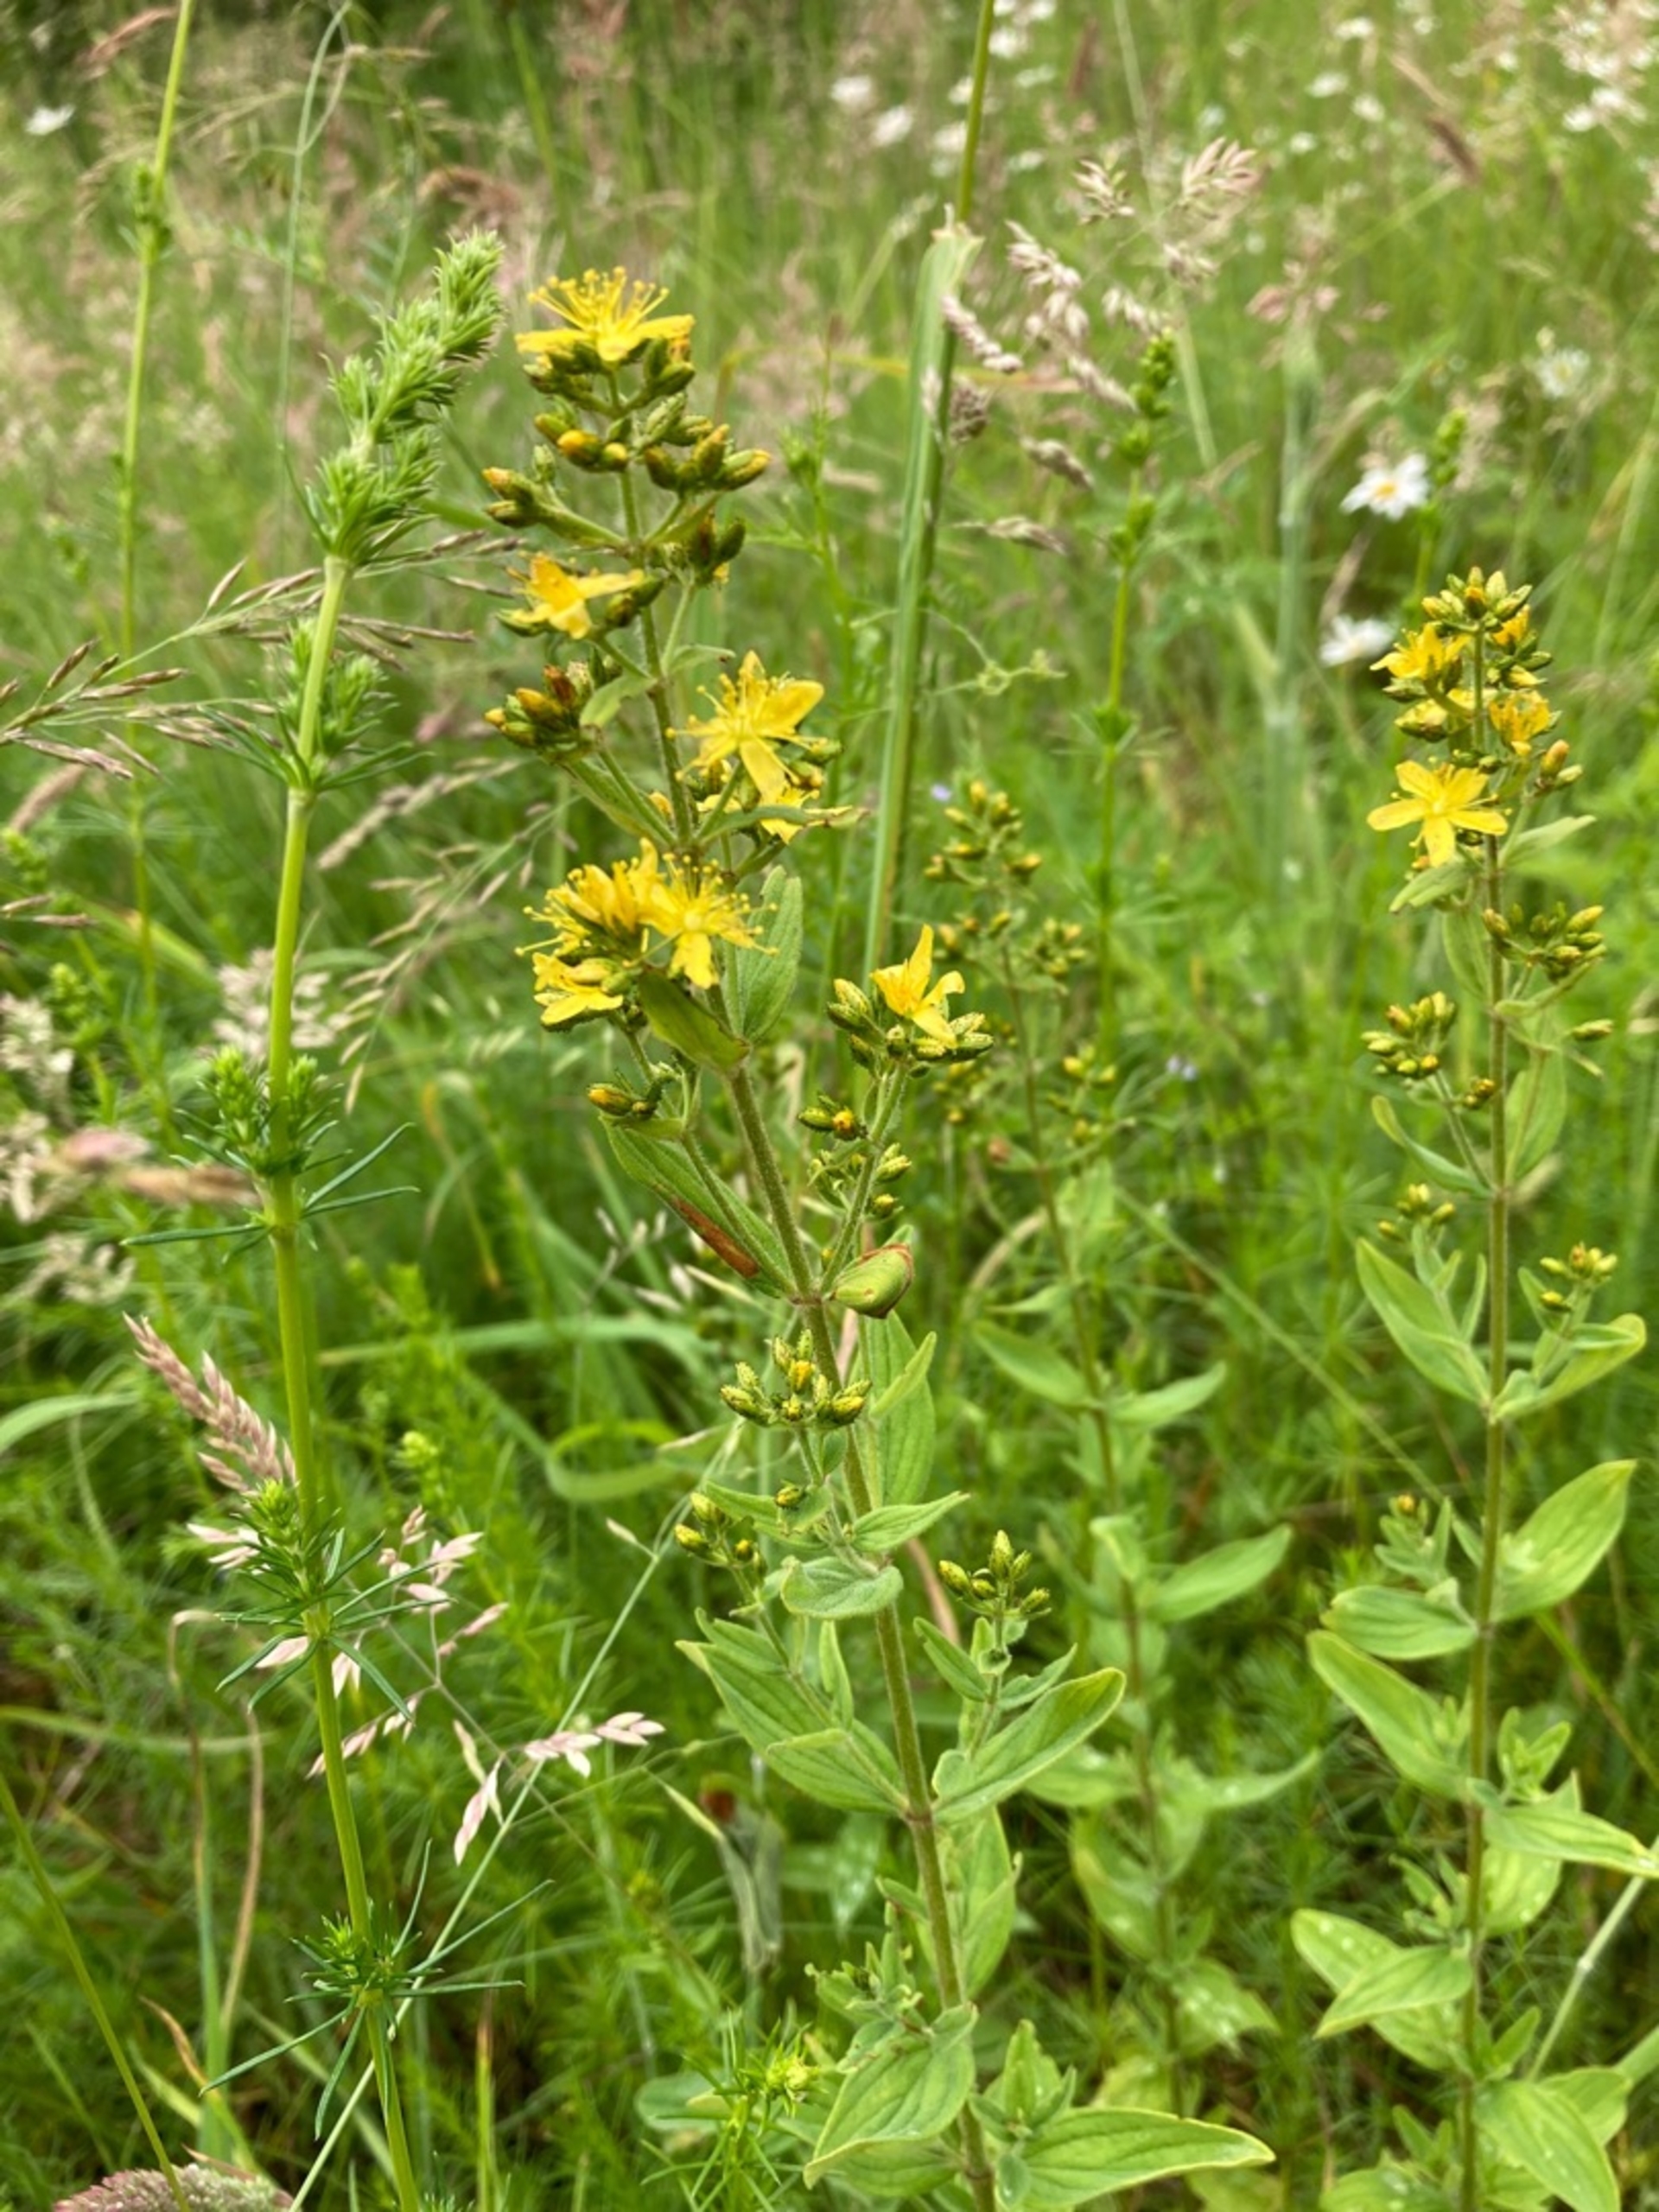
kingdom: Plantae
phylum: Tracheophyta
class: Magnoliopsida
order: Malpighiales
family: Hypericaceae
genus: Hypericum
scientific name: Hypericum hirsutum
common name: Lådden perikon
